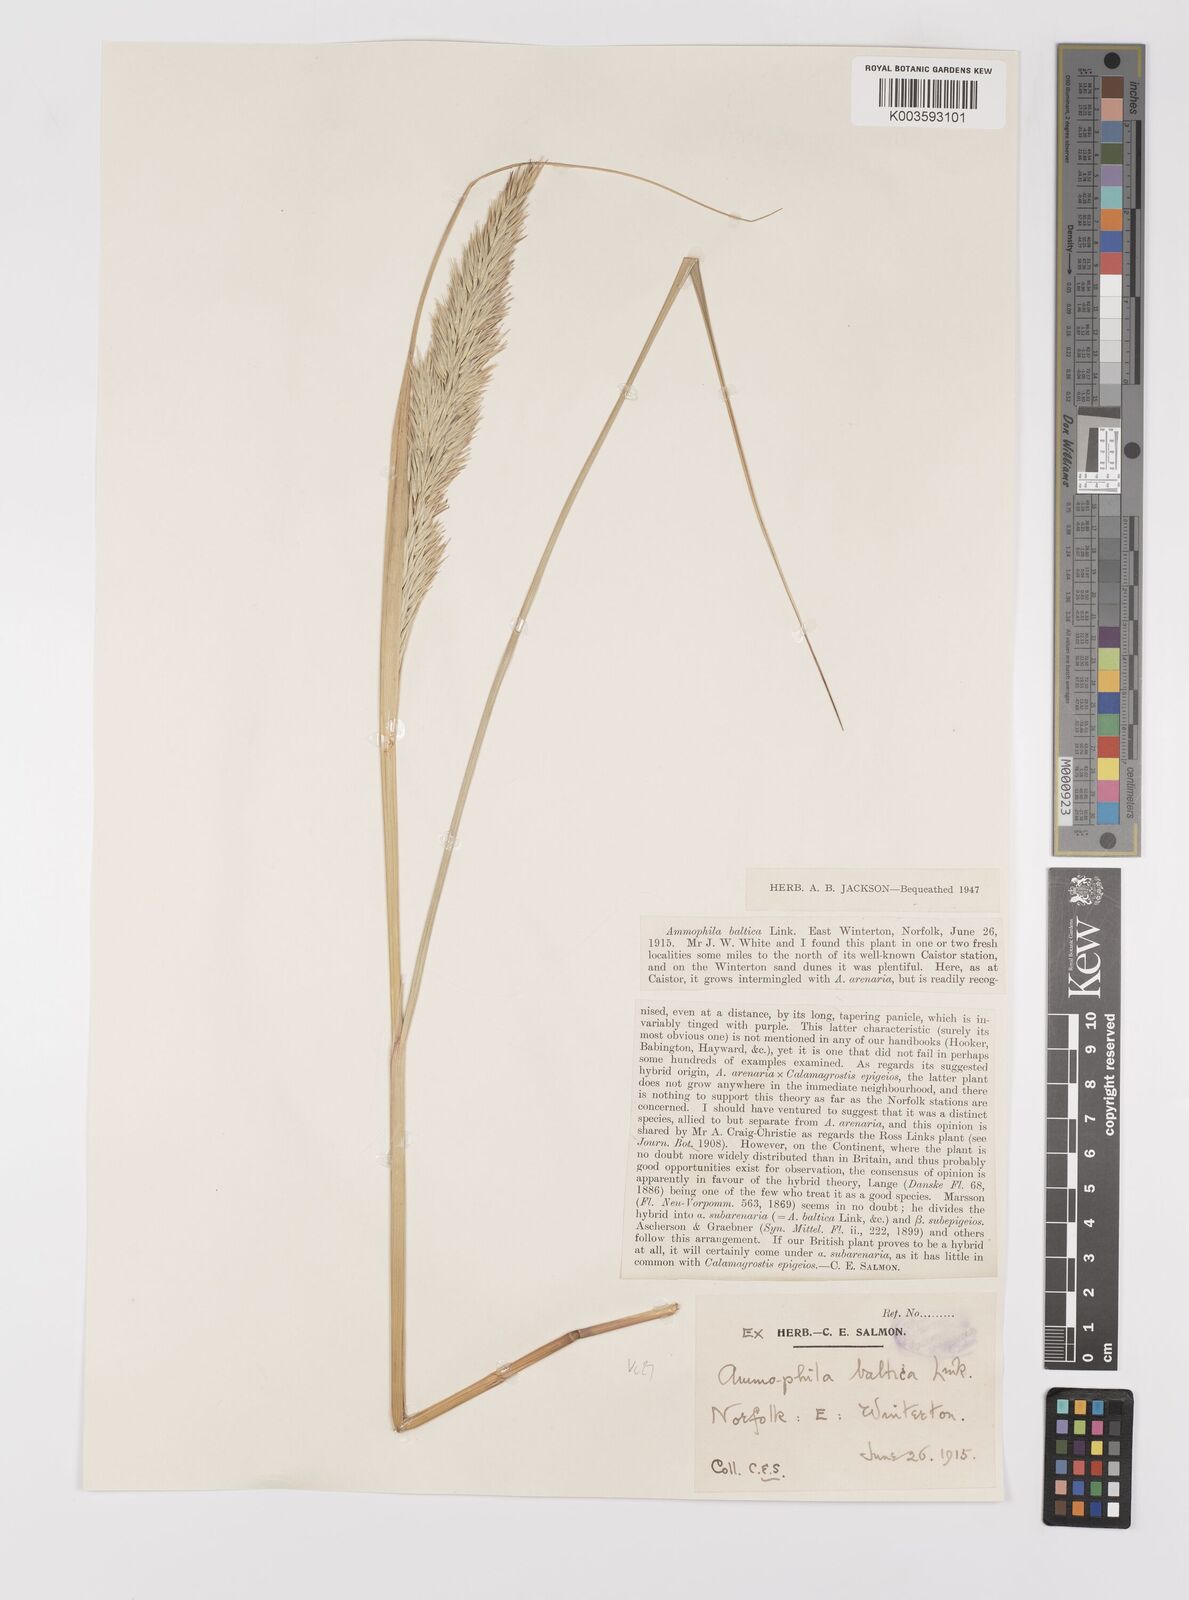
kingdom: Plantae
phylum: Tracheophyta
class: Liliopsida
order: Poales
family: Poaceae
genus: Calamagrostis
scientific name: Calamagrostis baltica
